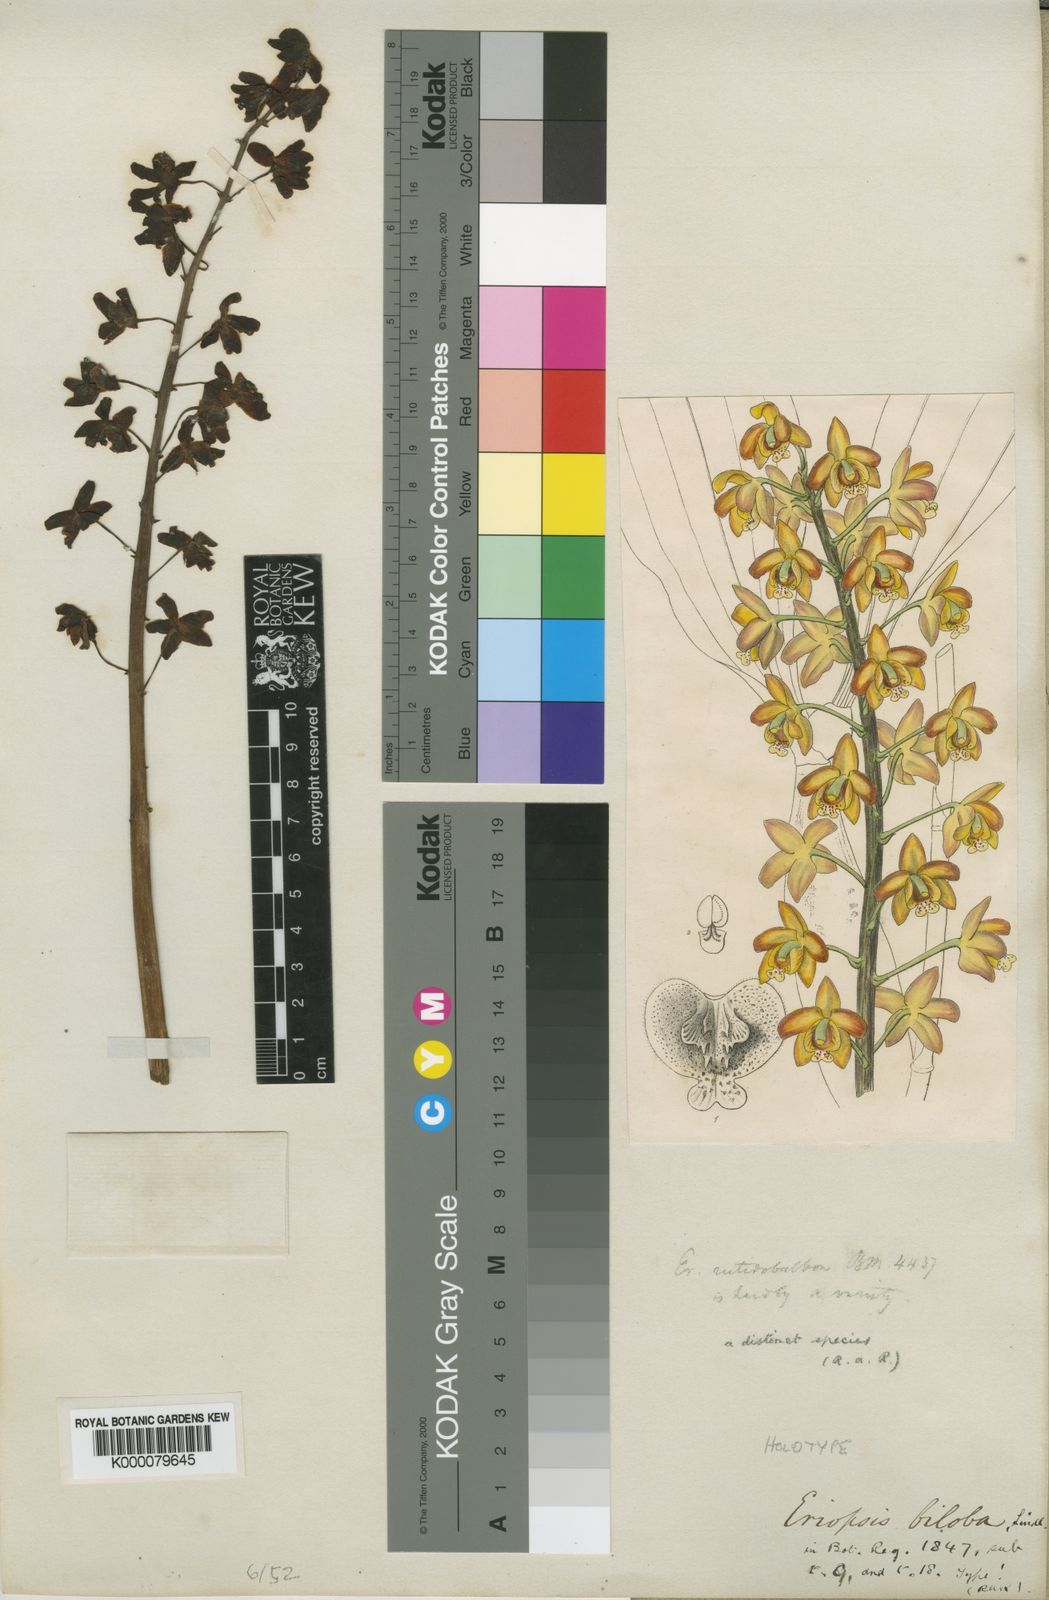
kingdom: Plantae
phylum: Tracheophyta
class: Liliopsida
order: Asparagales
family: Orchidaceae
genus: Eriopsis
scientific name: Eriopsis rutidobulbon
